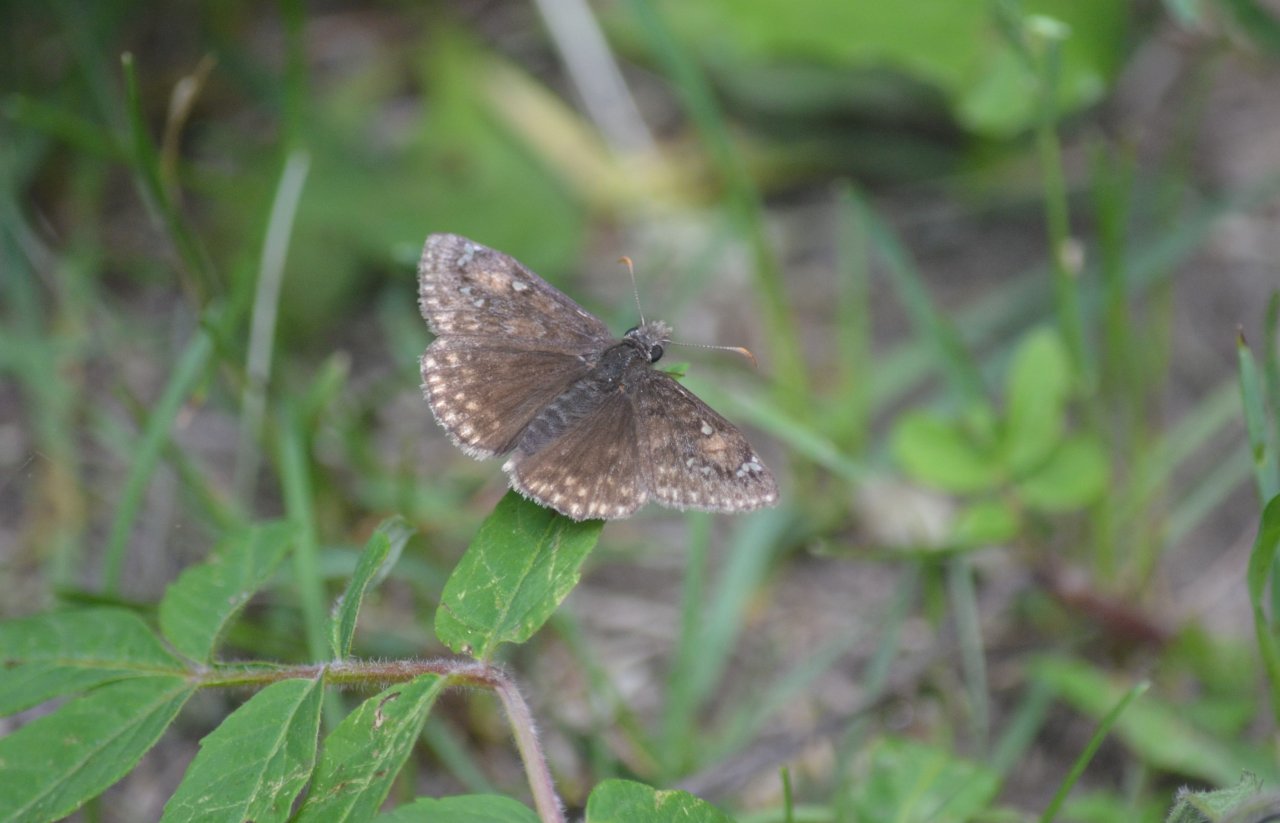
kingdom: Animalia
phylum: Arthropoda
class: Insecta
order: Lepidoptera
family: Hesperiidae
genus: Gesta
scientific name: Gesta
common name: Juvenal's Duskywing
